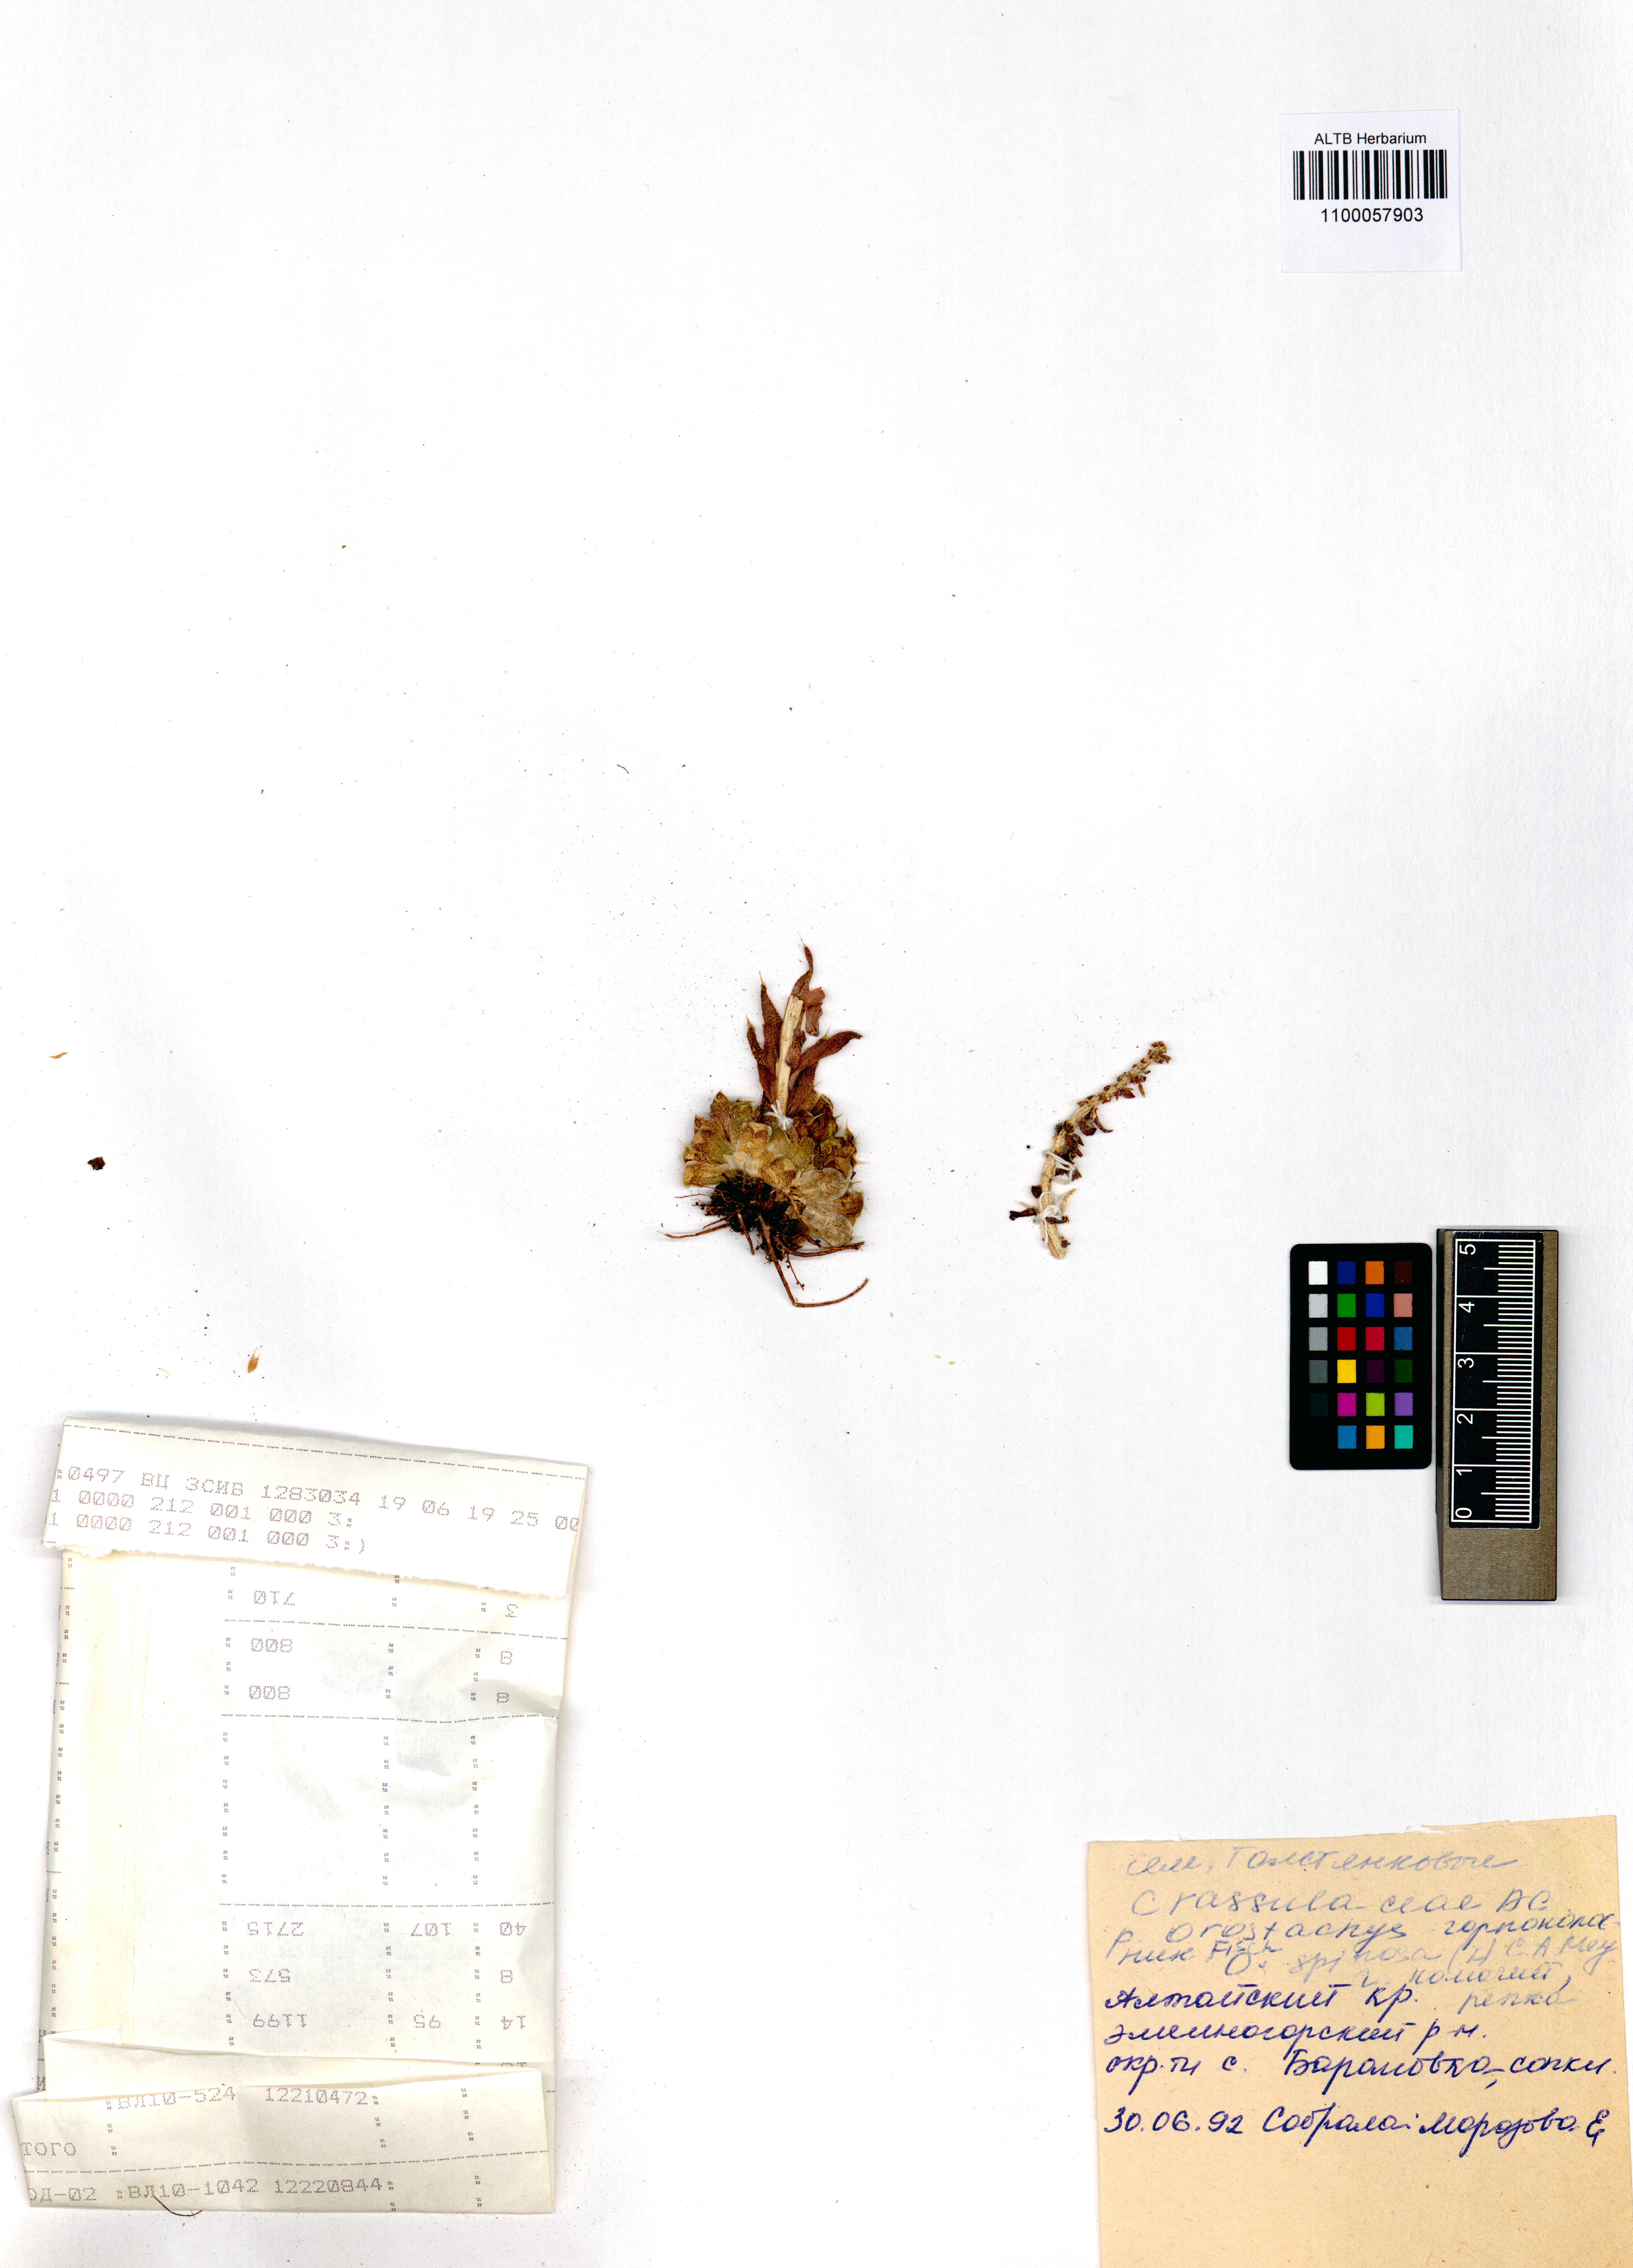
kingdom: Plantae
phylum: Tracheophyta
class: Magnoliopsida
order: Saxifragales
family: Crassulaceae
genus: Orostachys
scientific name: Orostachys spinosa
